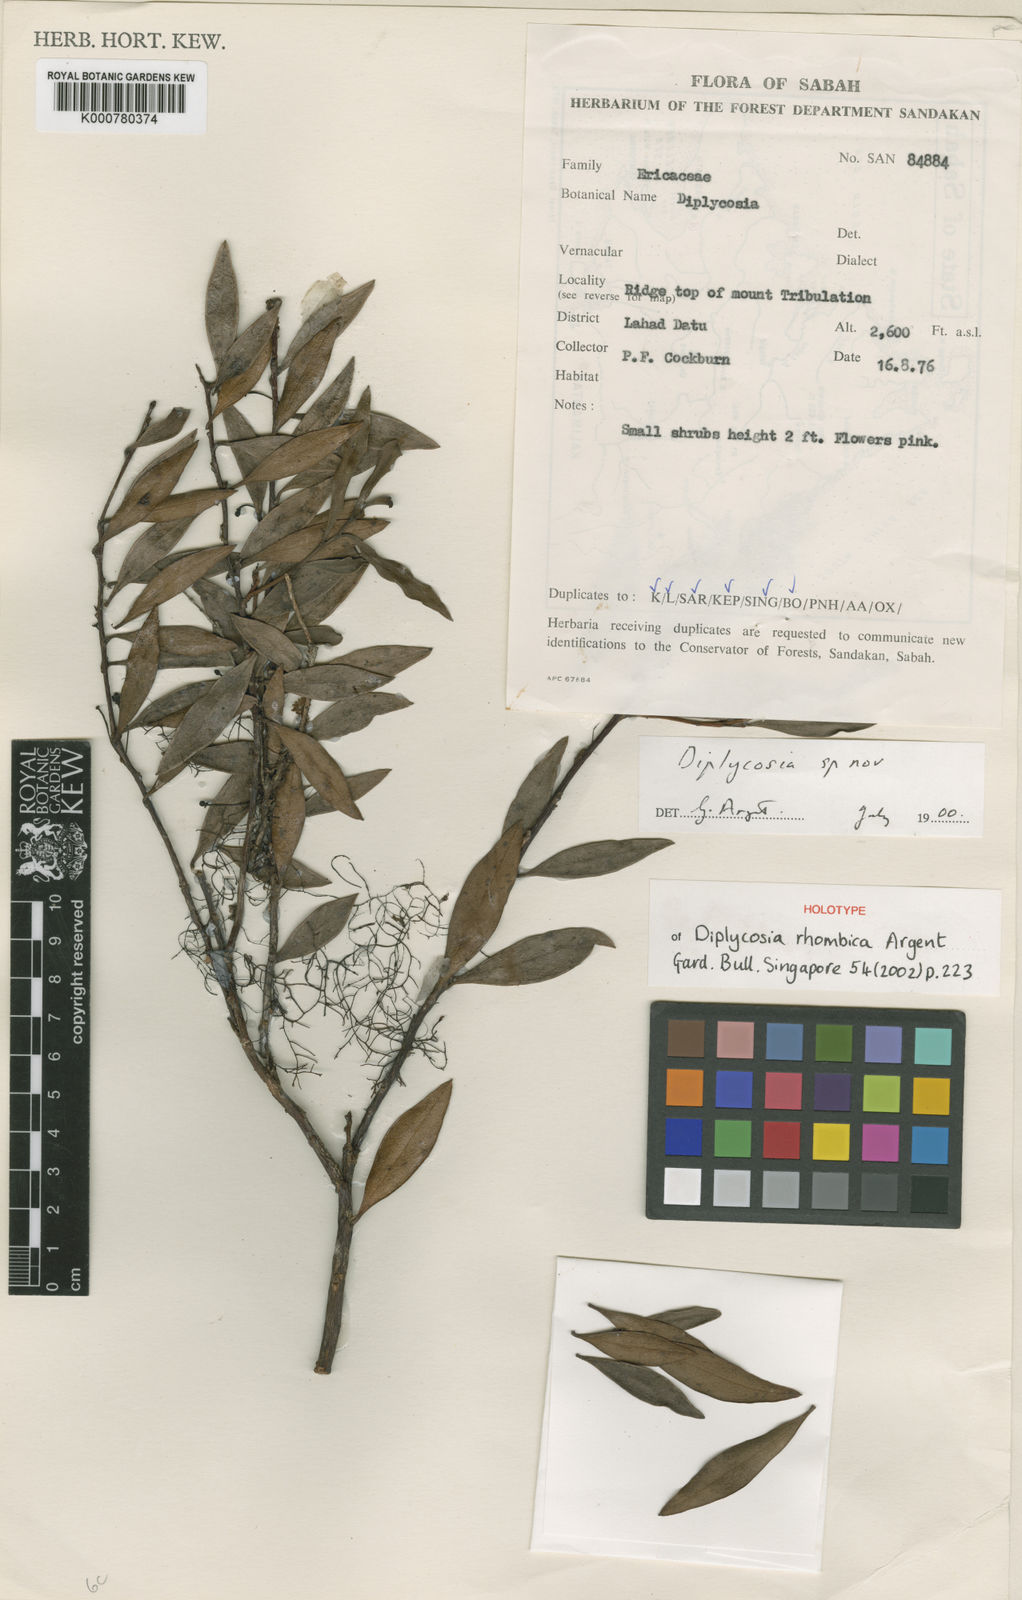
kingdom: Plantae
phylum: Tracheophyta
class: Magnoliopsida
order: Ericales
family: Ericaceae
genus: Gaultheria
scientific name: Gaultheria rhombica
